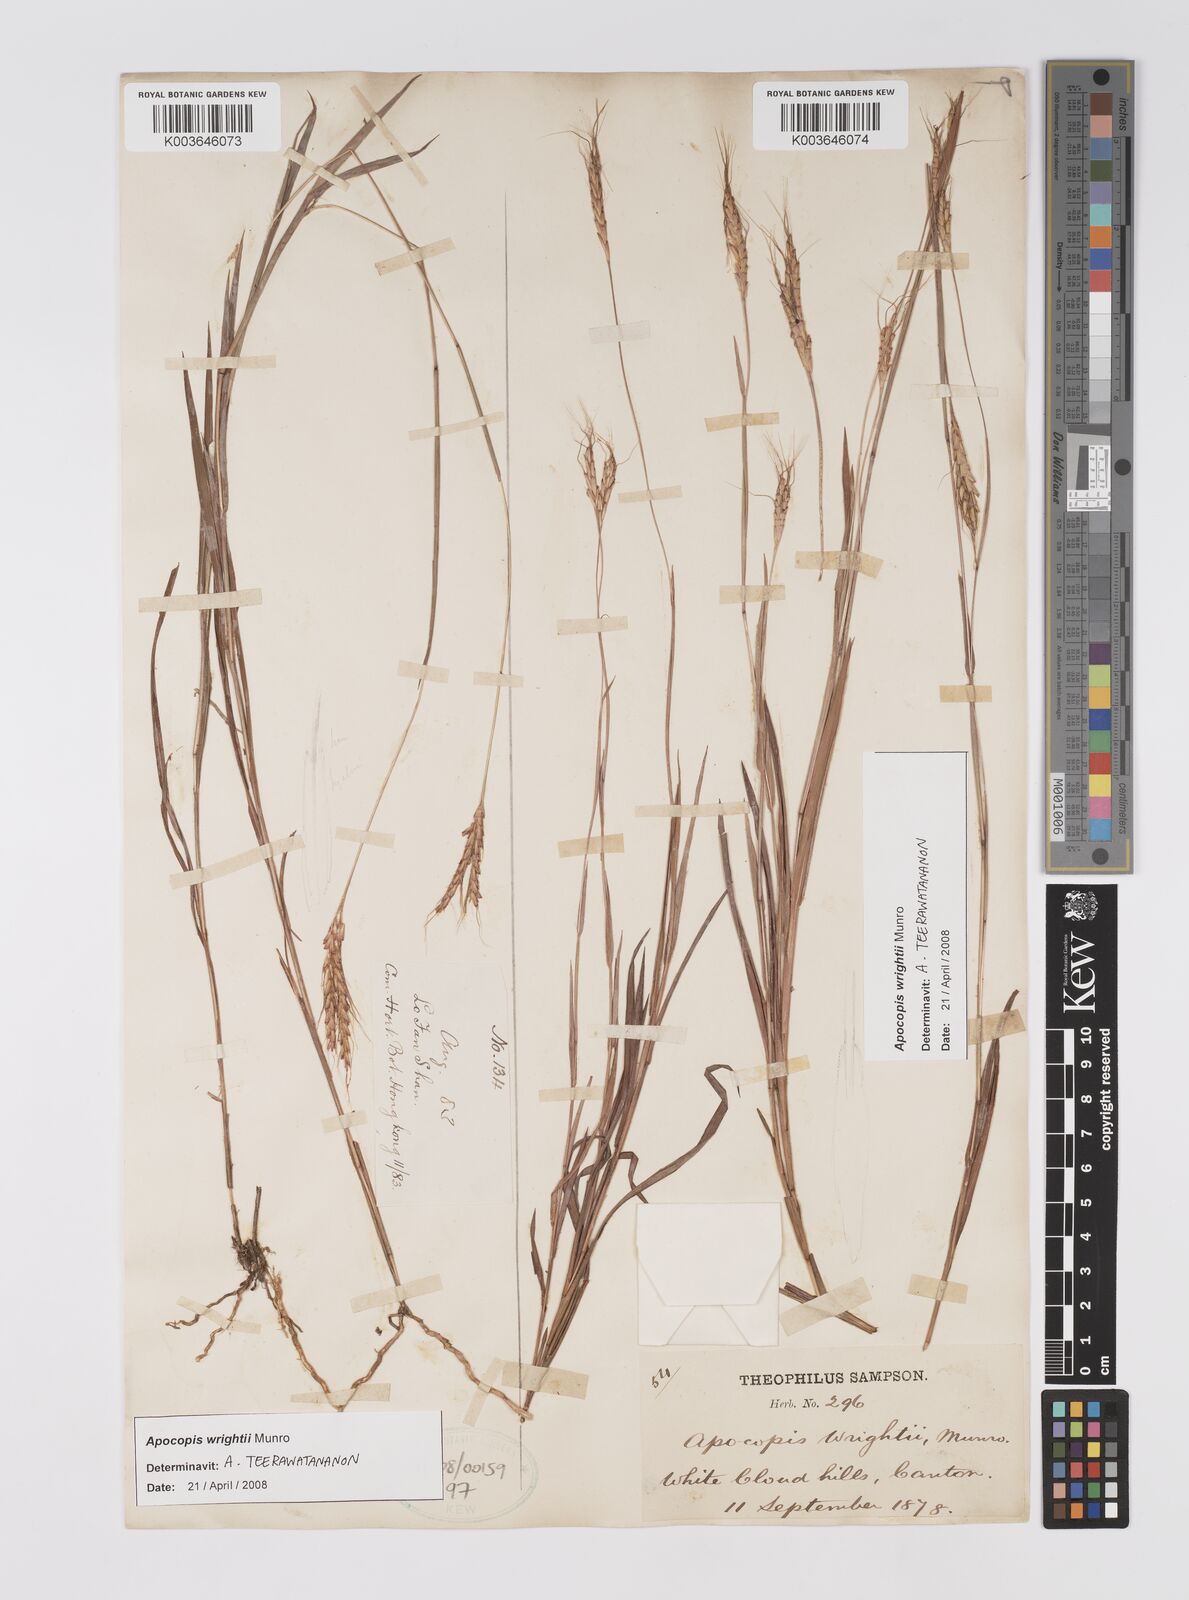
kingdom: Plantae
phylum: Tracheophyta
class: Liliopsida
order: Poales
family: Poaceae
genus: Apocopis
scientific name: Apocopis wrightii
